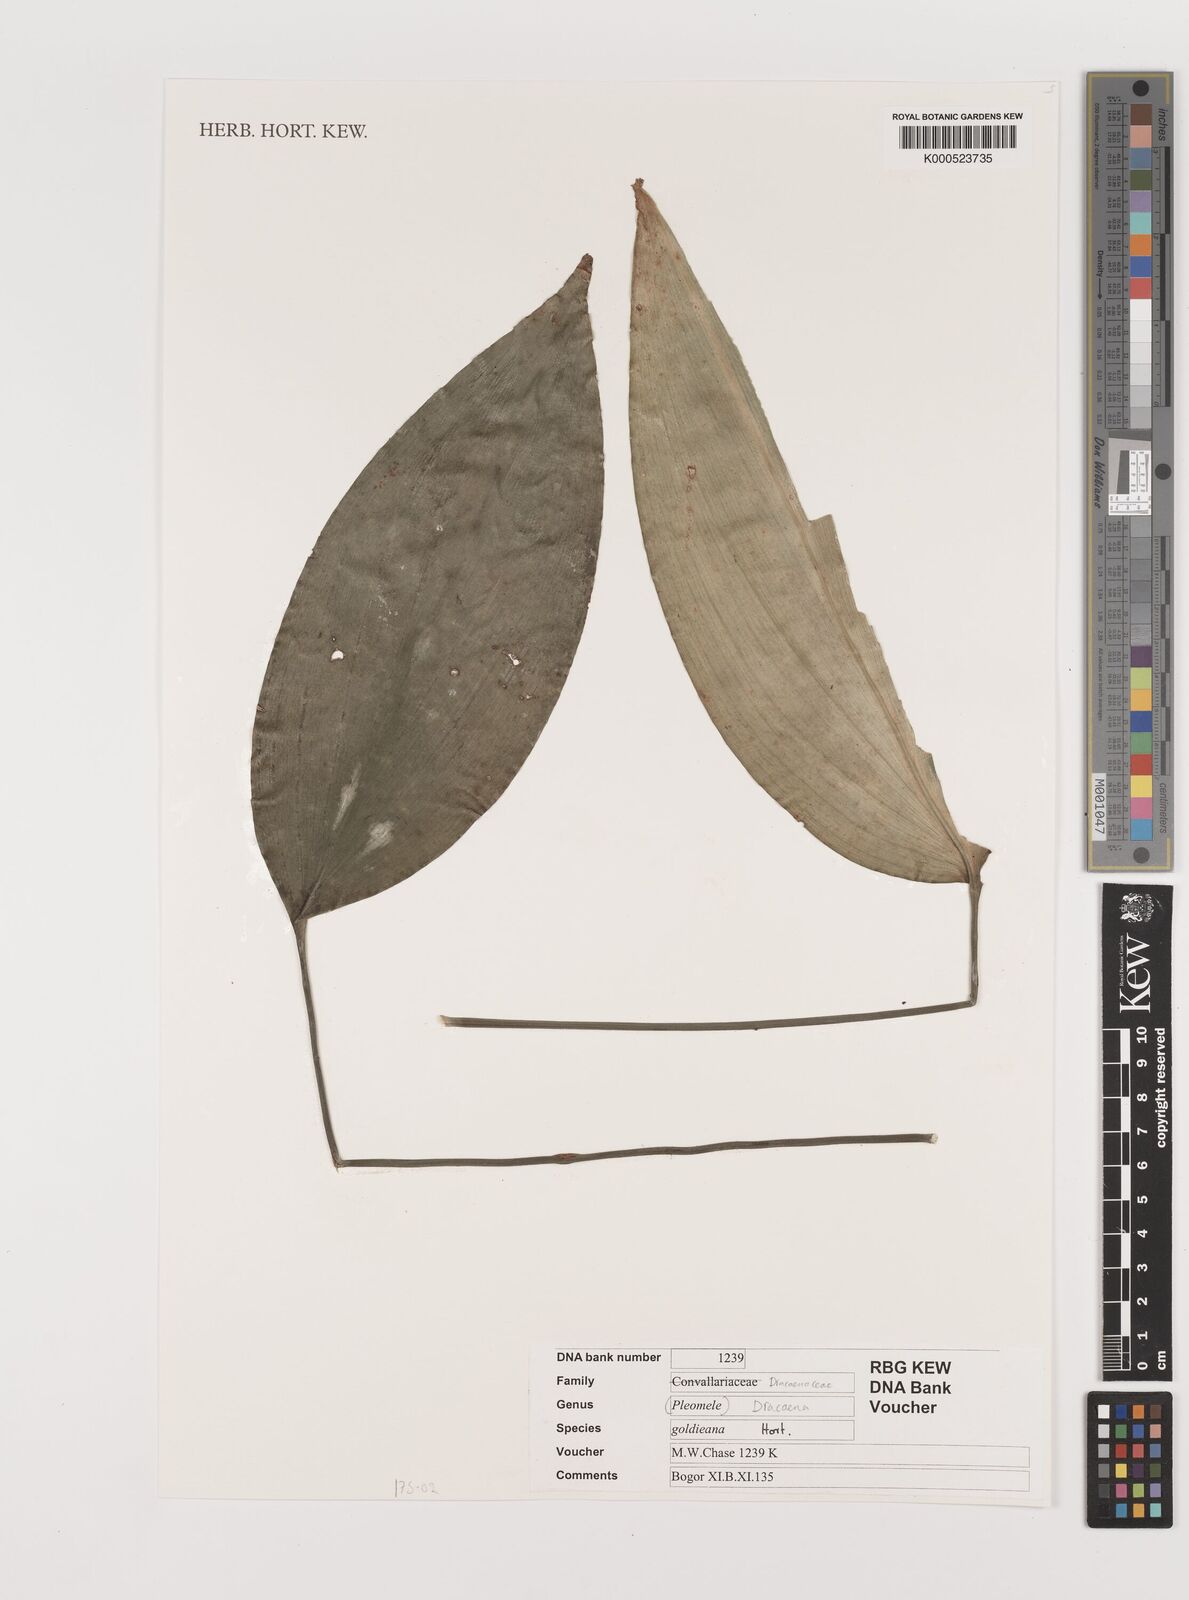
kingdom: Plantae
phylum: Tracheophyta
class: Liliopsida
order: Asparagales
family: Asparagaceae
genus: Dracaena
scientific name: Dracaena goldieana
